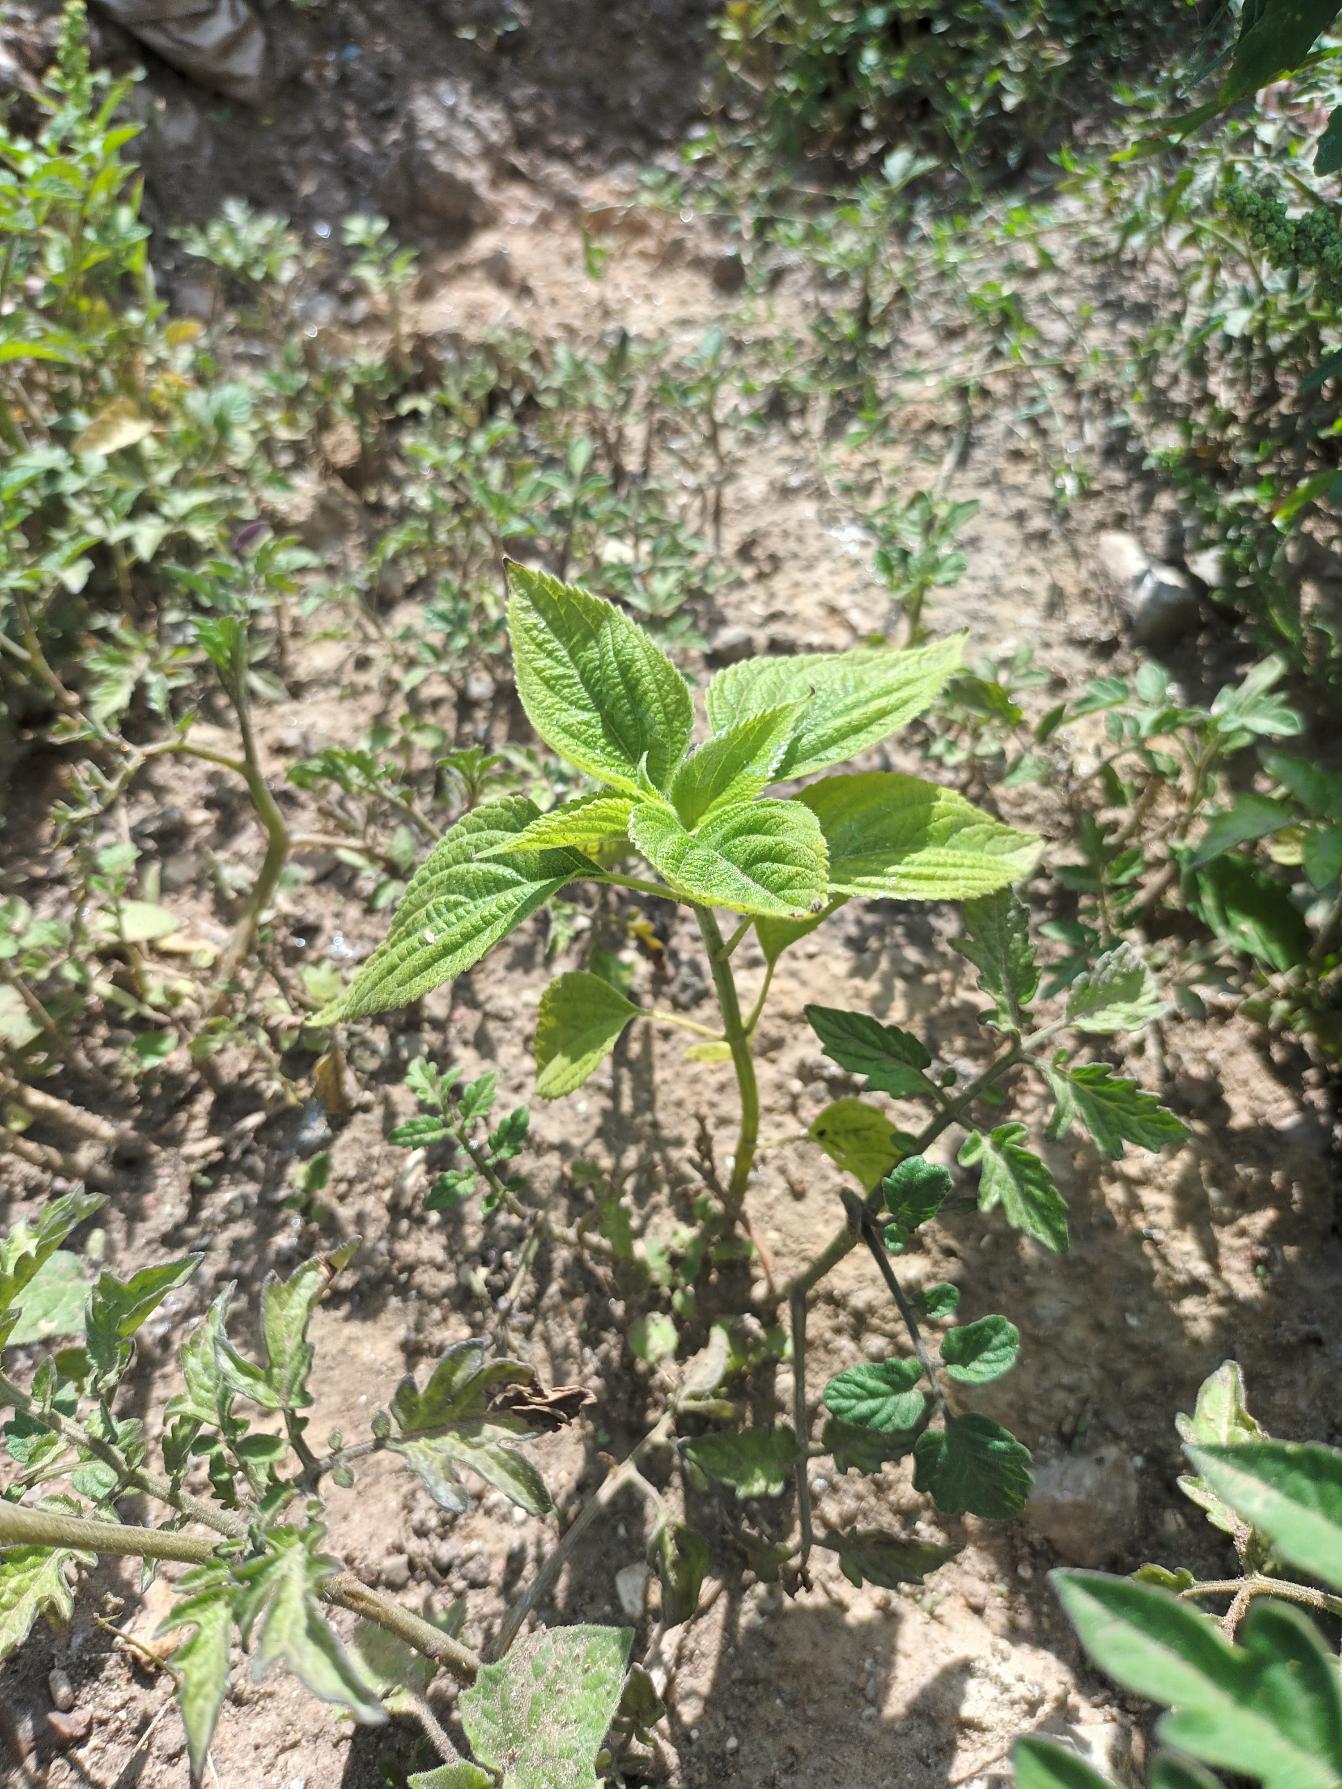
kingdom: Plantae
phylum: Tracheophyta
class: Magnoliopsida
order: Lamiales
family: Lamiaceae
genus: Salvia
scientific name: Salvia hispanica
